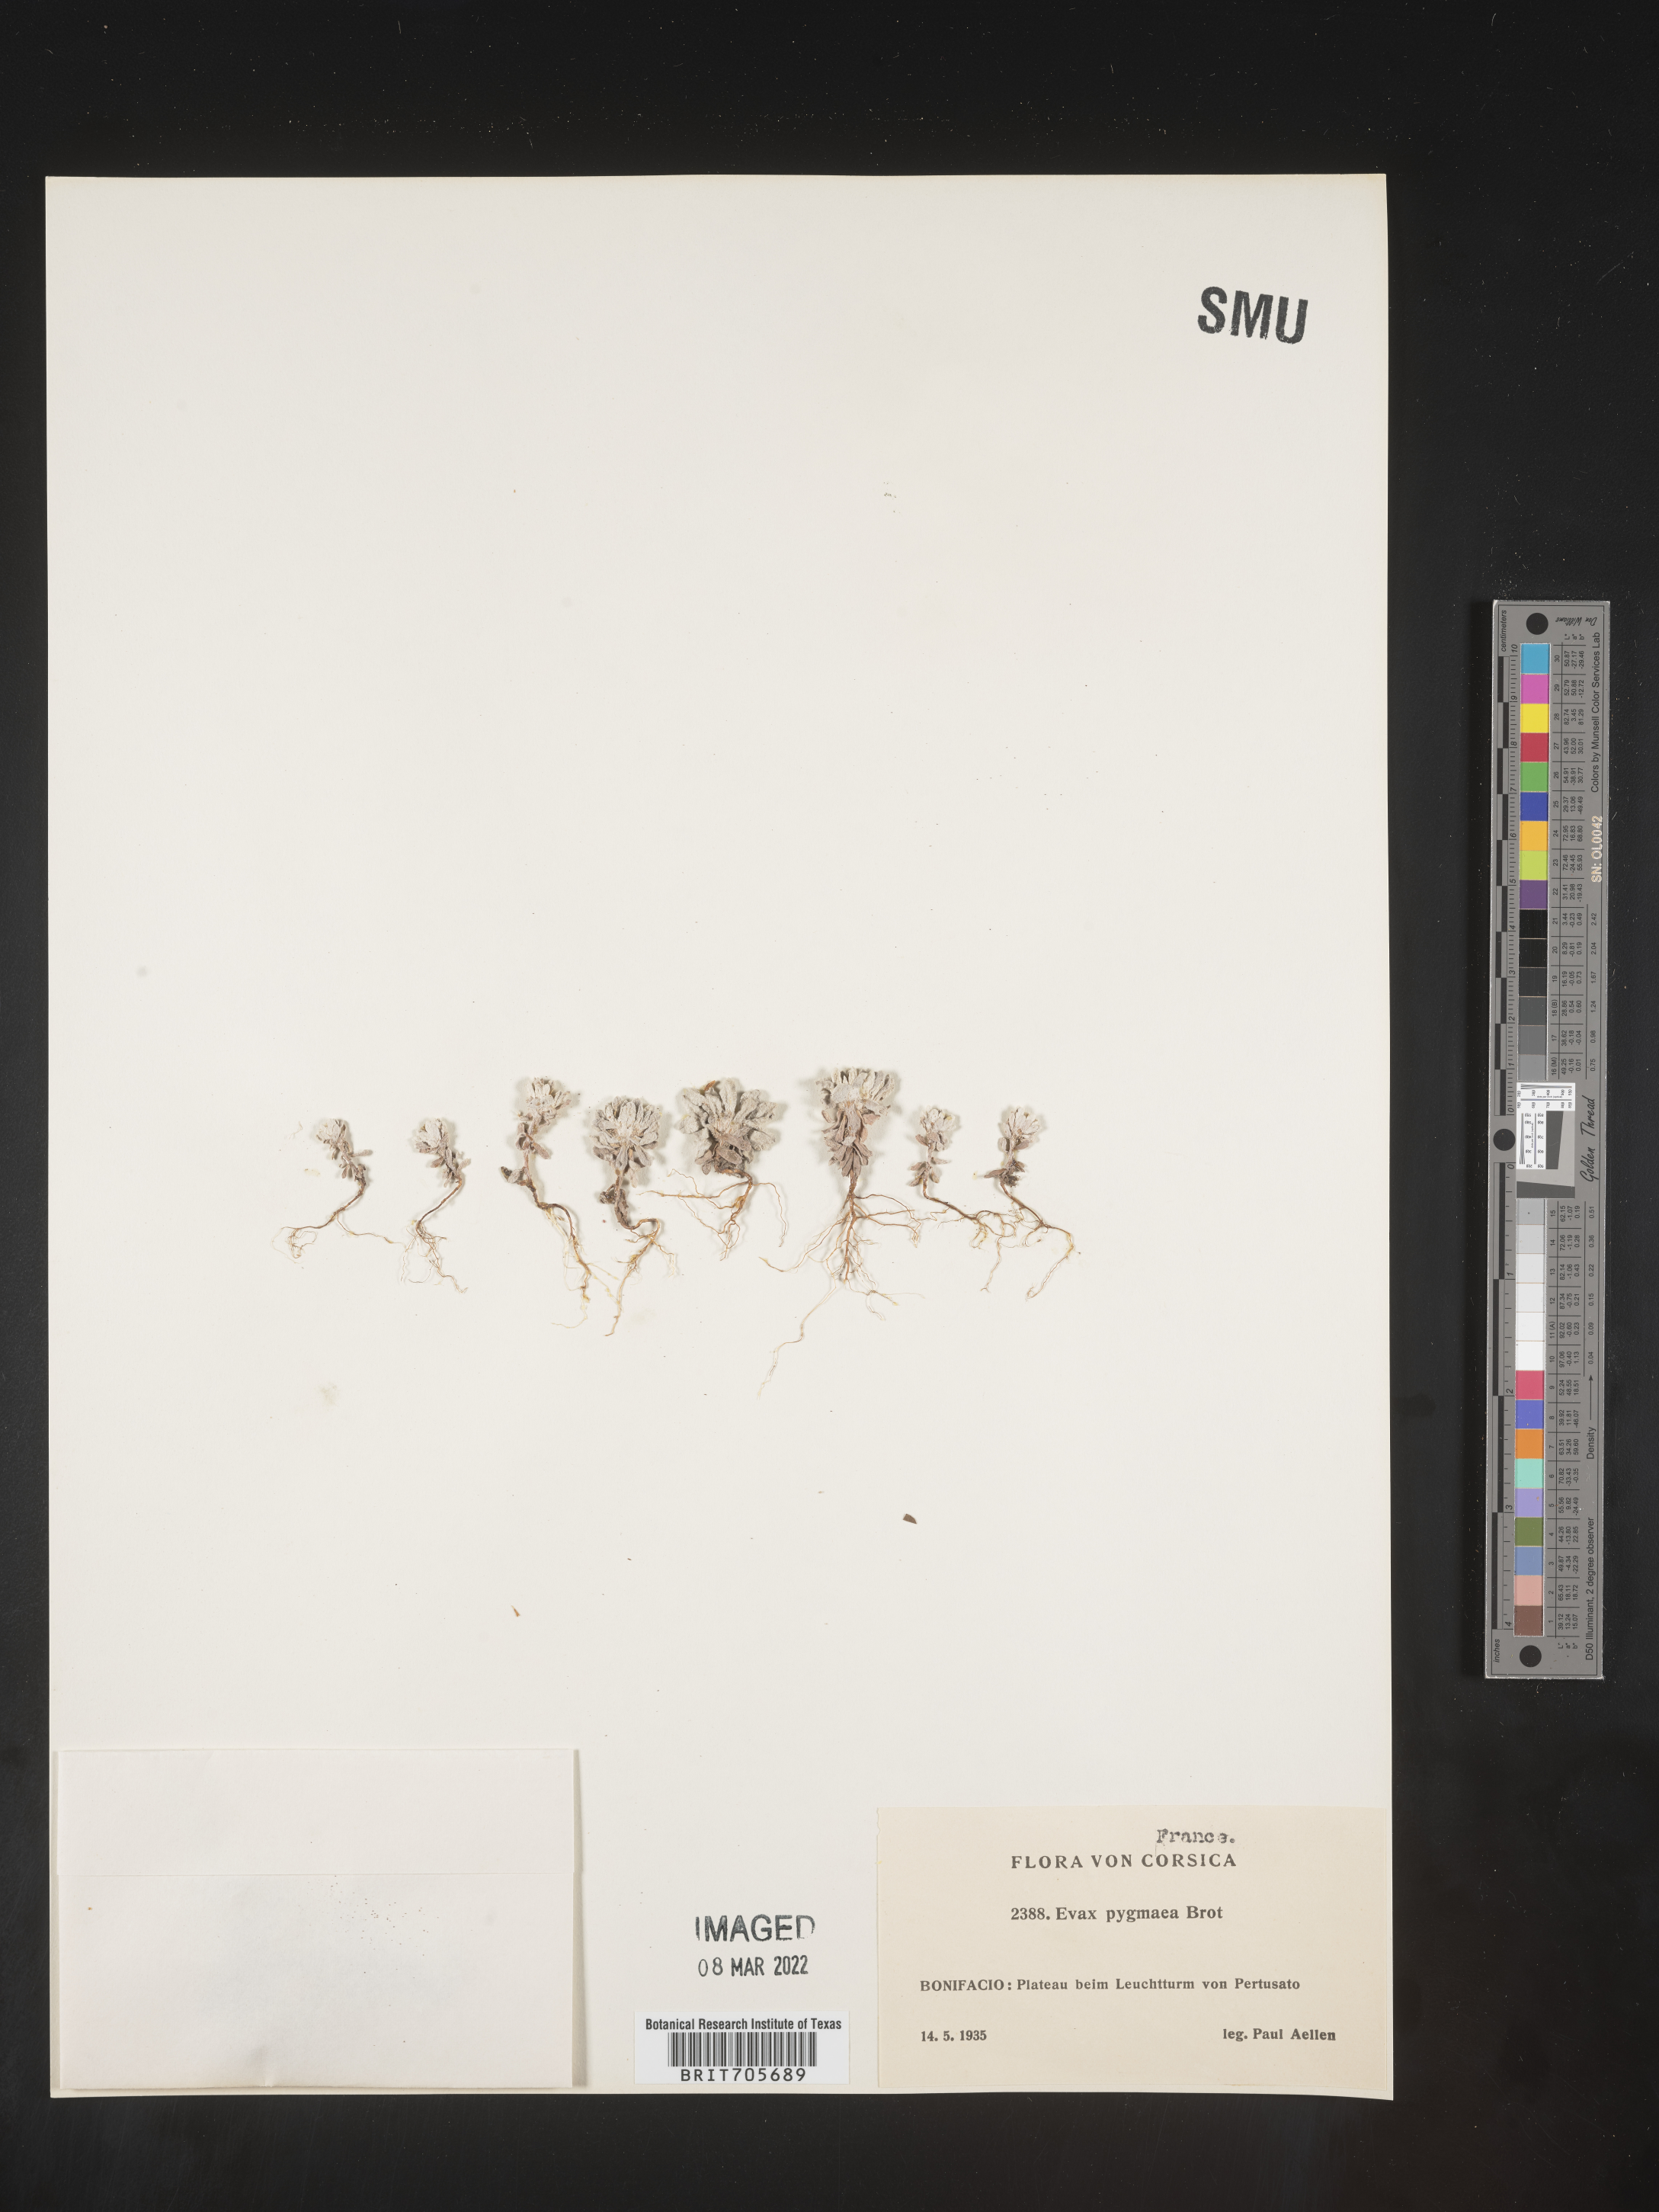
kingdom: Plantae
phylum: Tracheophyta
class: Magnoliopsida
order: Asterales
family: Asteraceae
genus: Filago
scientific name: Filago
